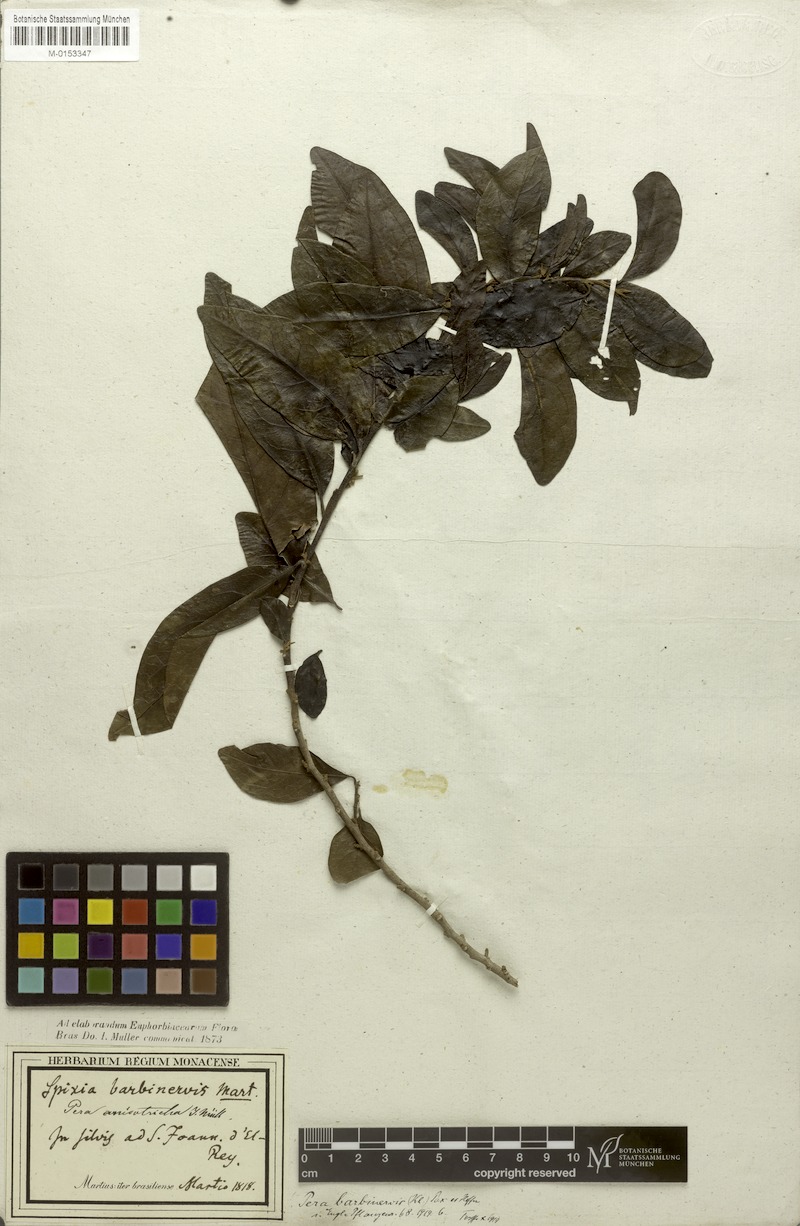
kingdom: Plantae
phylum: Tracheophyta
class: Magnoliopsida
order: Malpighiales
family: Peraceae
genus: Pera
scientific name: Pera anisotricha
